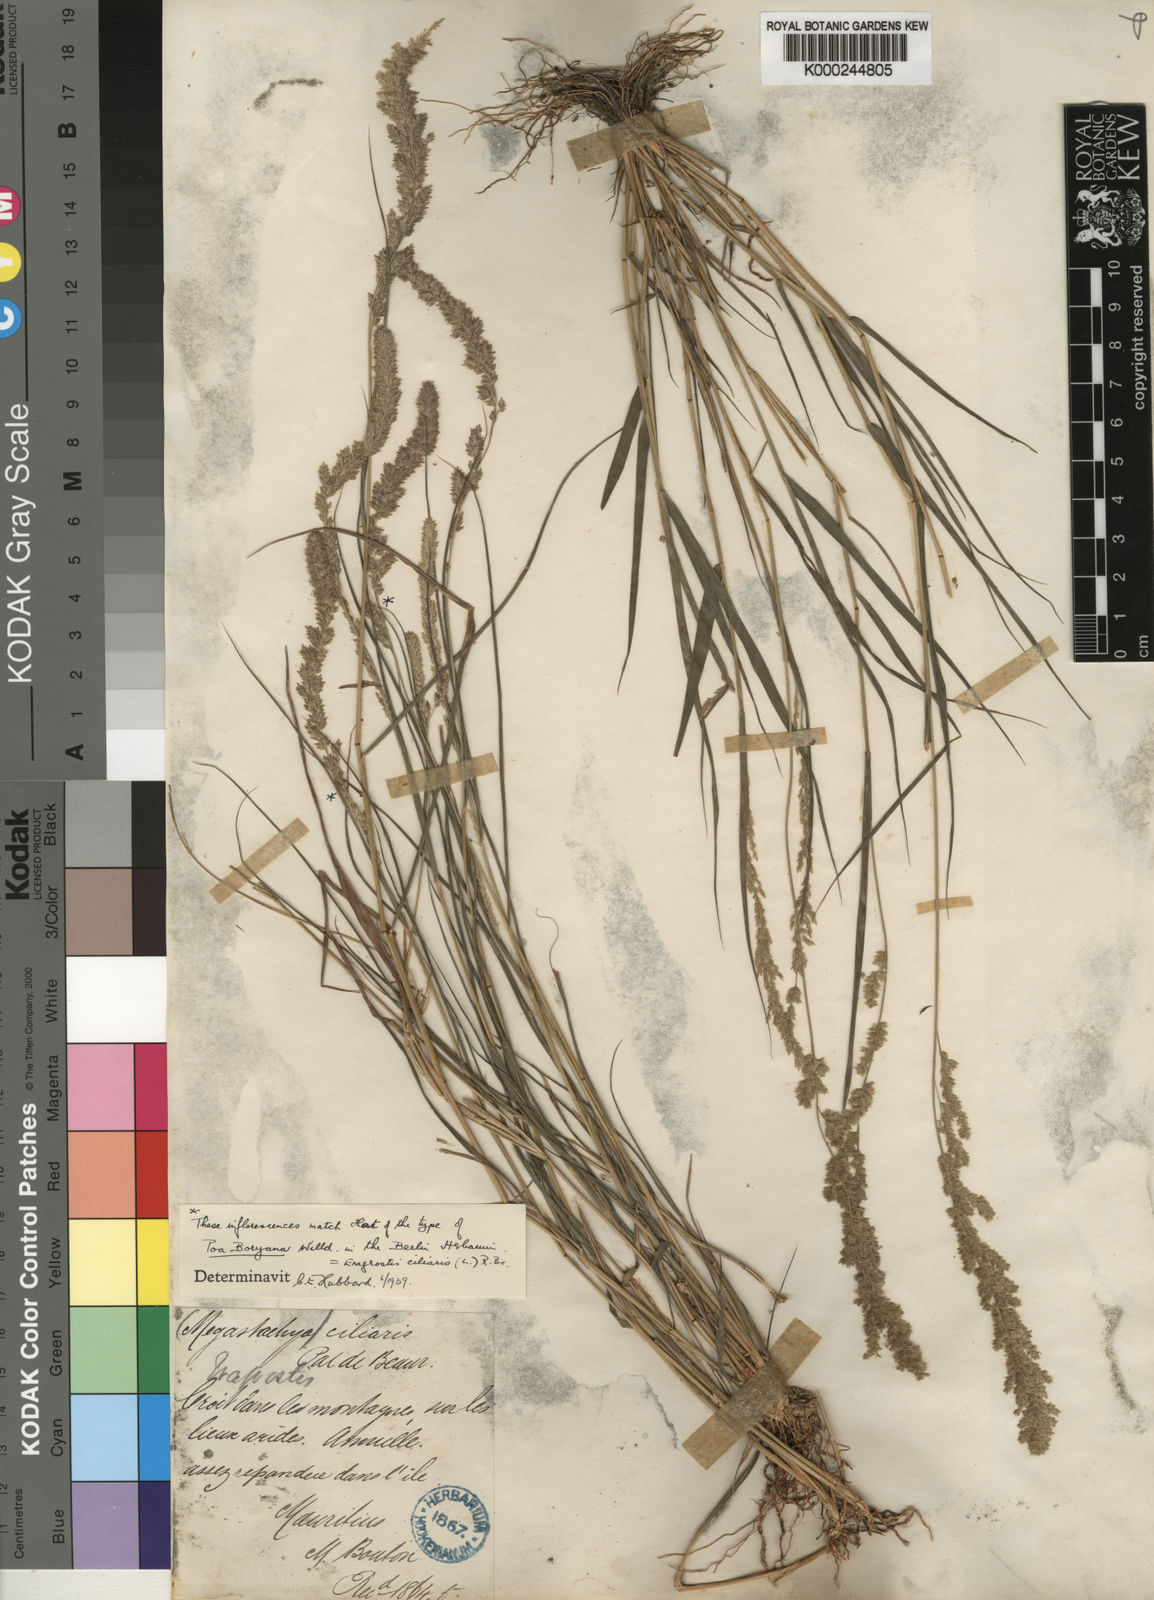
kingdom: Plantae
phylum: Tracheophyta
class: Liliopsida
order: Poales
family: Poaceae
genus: Eragrostis
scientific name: Eragrostis ciliaris
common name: Gophertail lovegrass
